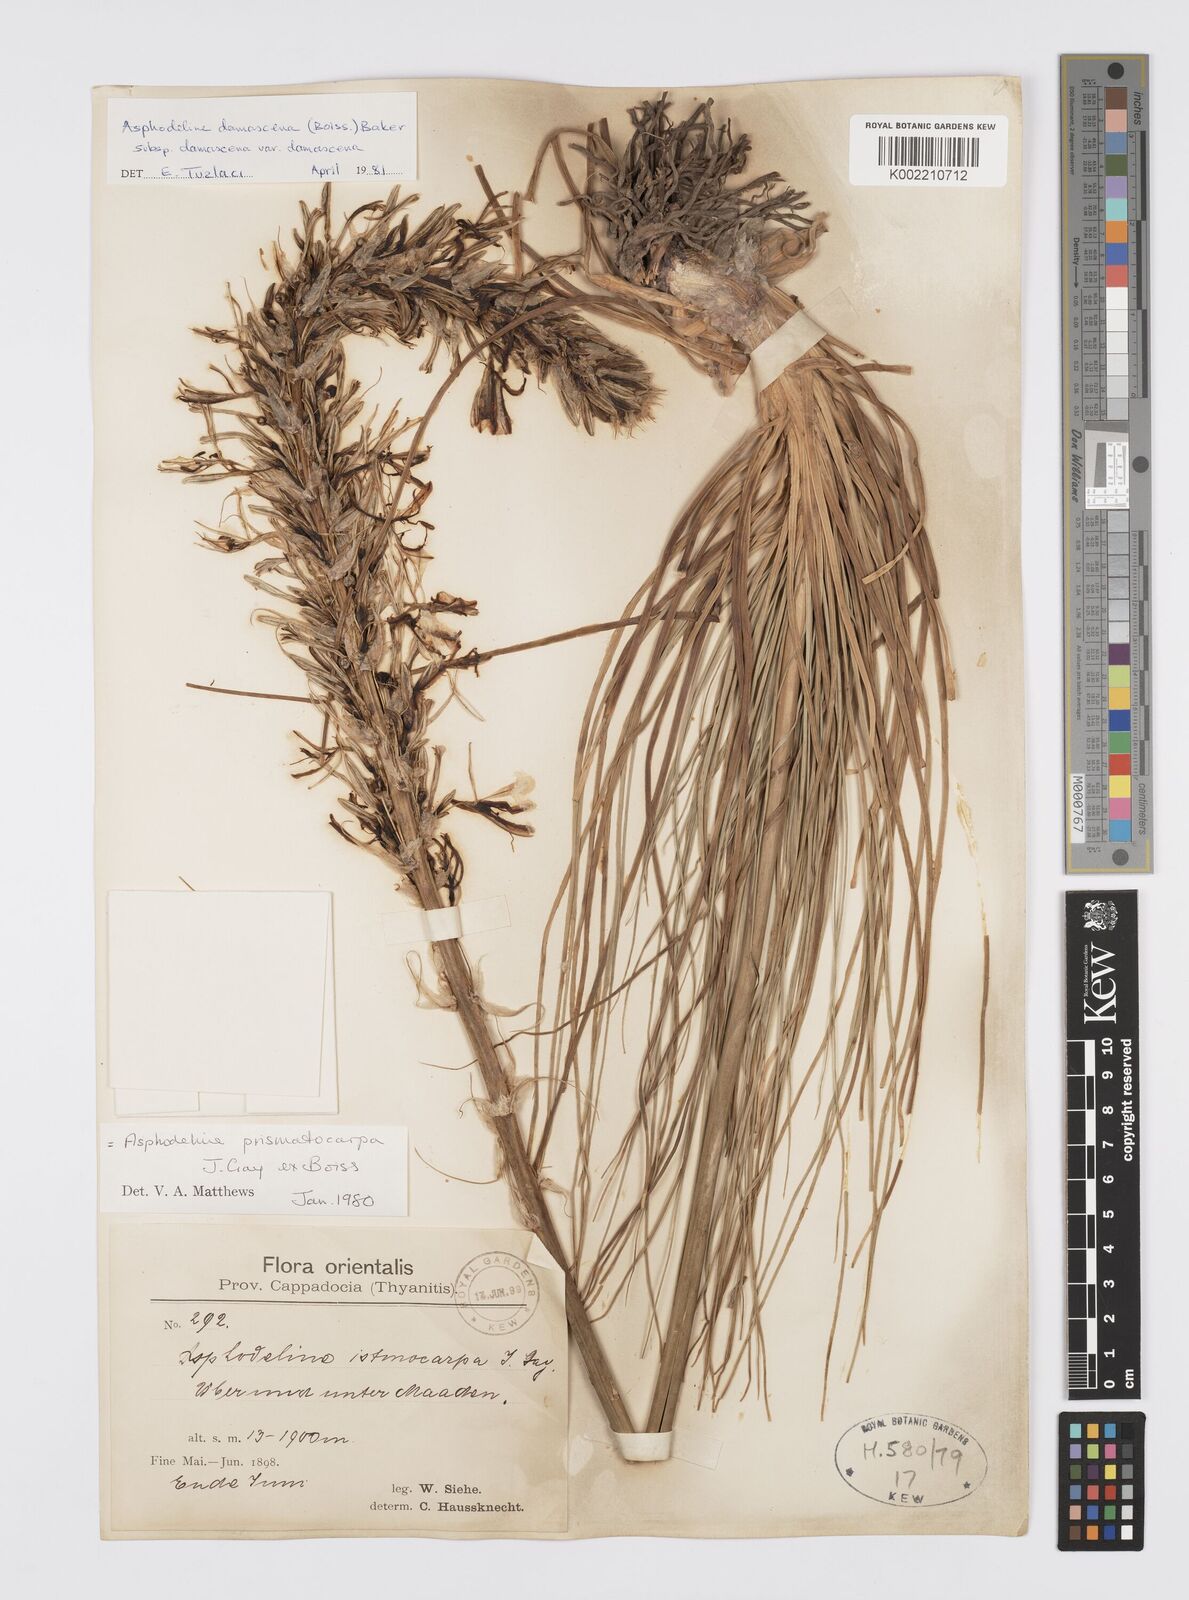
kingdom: Plantae
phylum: Tracheophyta
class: Liliopsida
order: Asparagales
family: Asphodelaceae
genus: Asphodeline
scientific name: Asphodeline damascena
